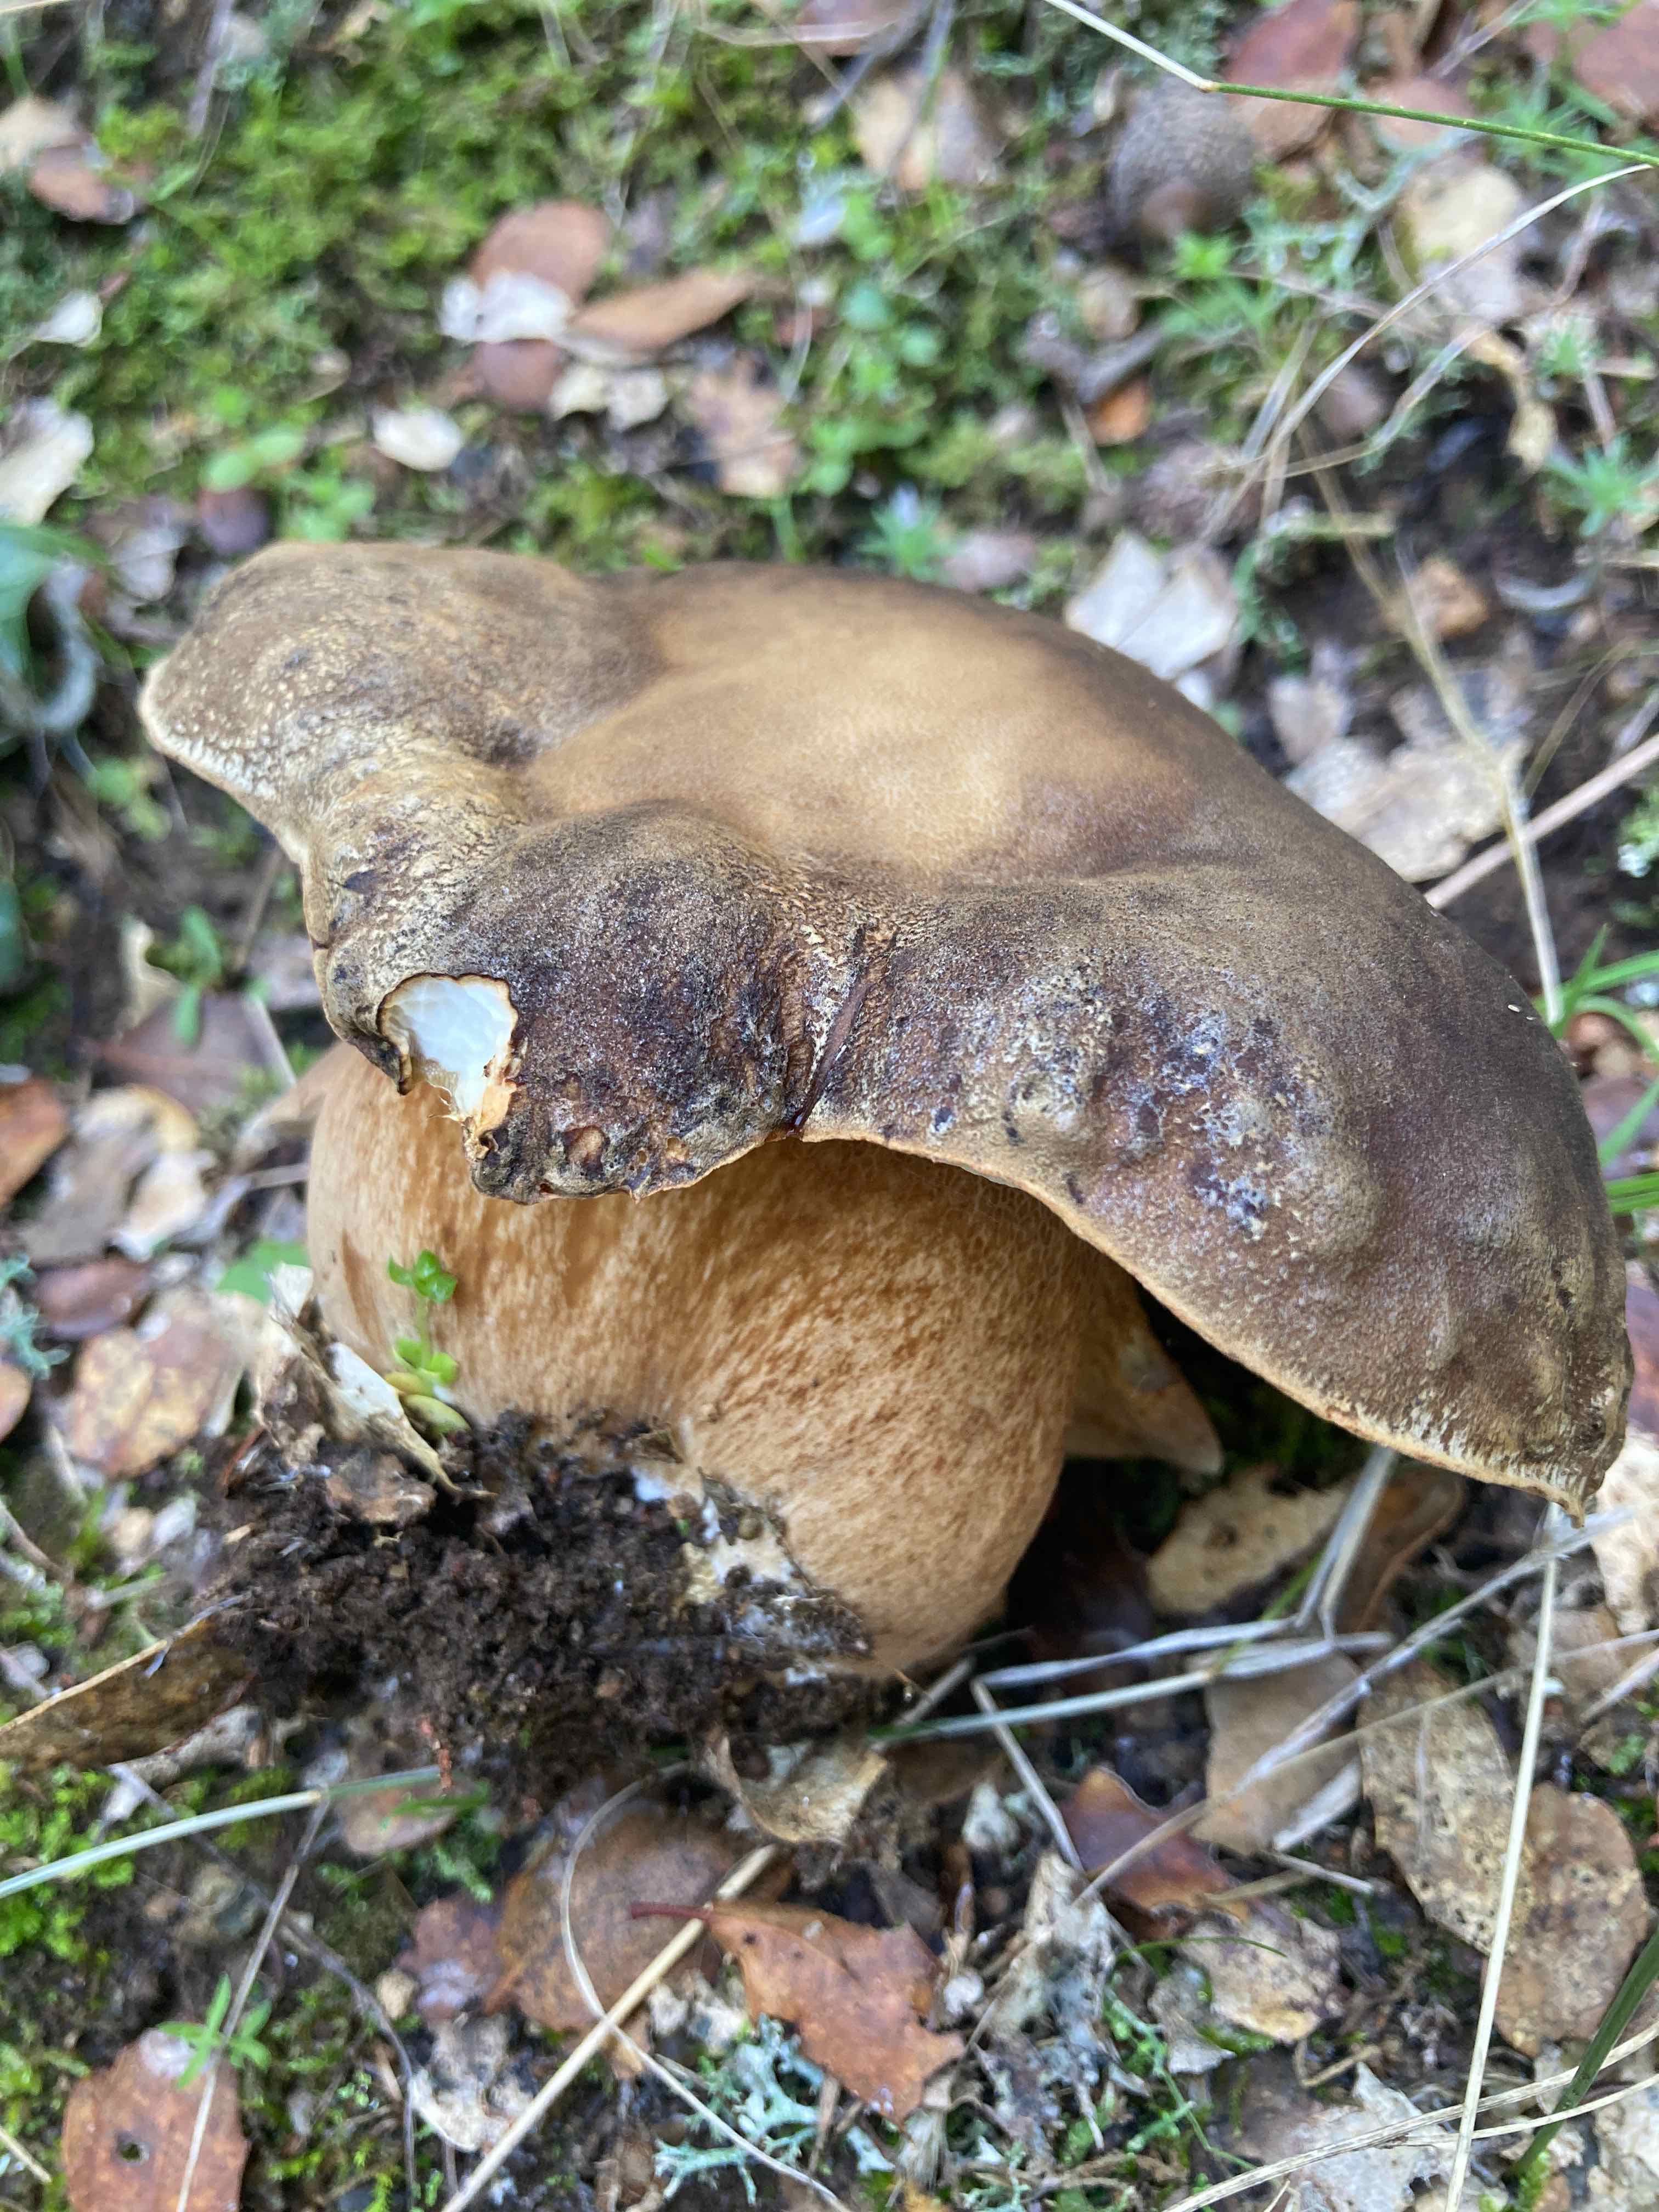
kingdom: Fungi
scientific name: Fungi
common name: bronze-rørhat
